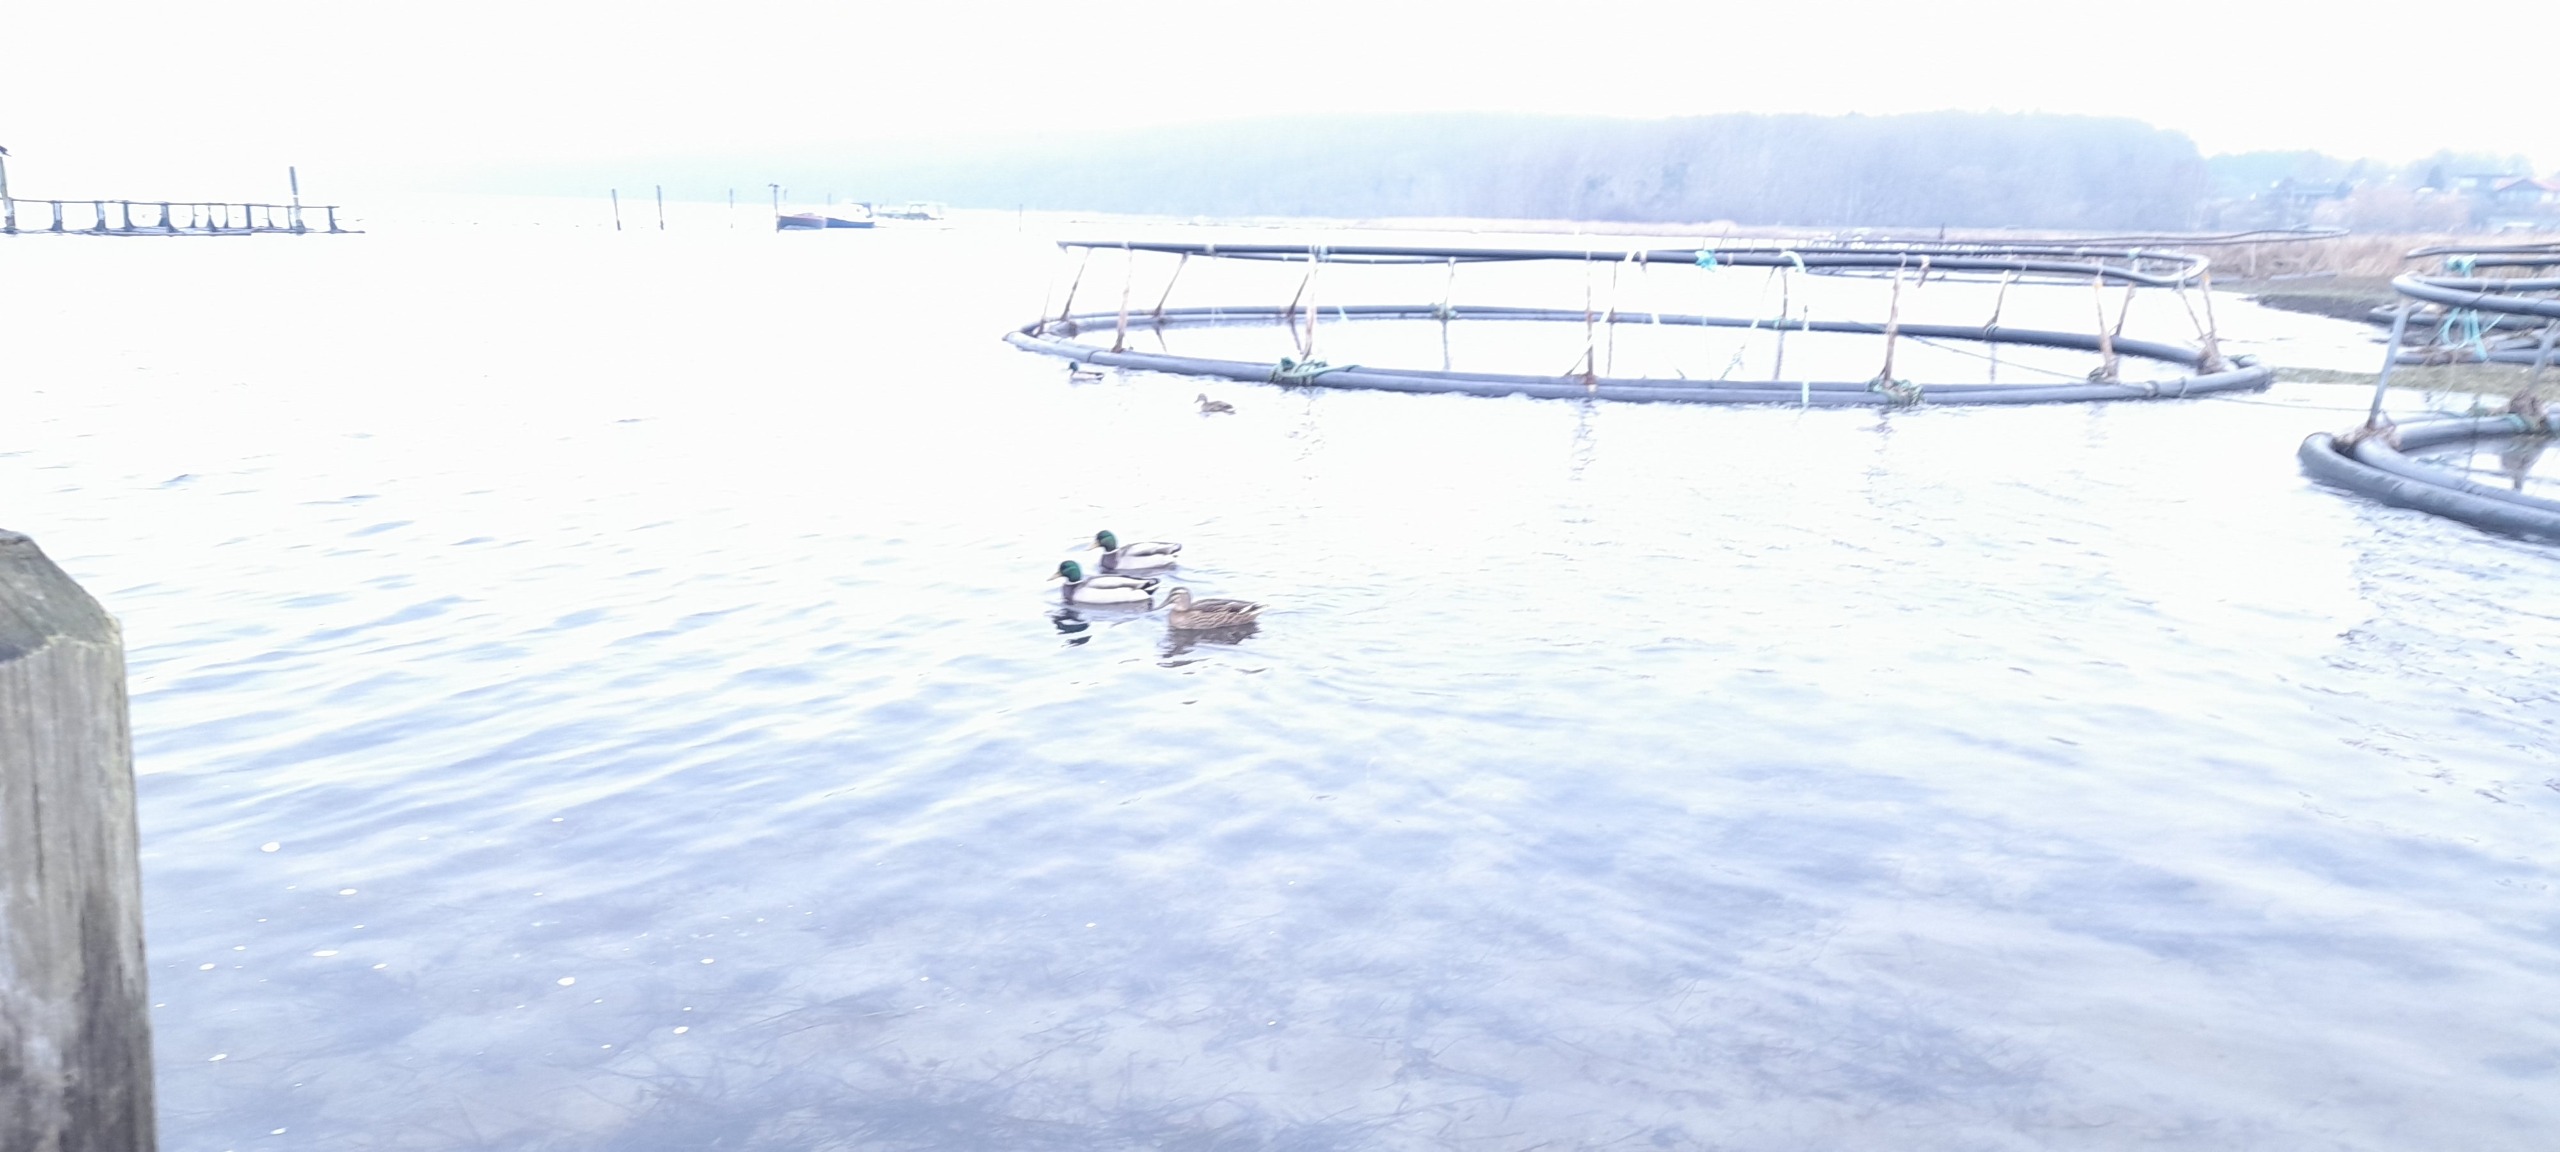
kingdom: Animalia
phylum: Chordata
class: Aves
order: Anseriformes
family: Anatidae
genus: Anas
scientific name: Anas platyrhynchos
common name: Gråand
